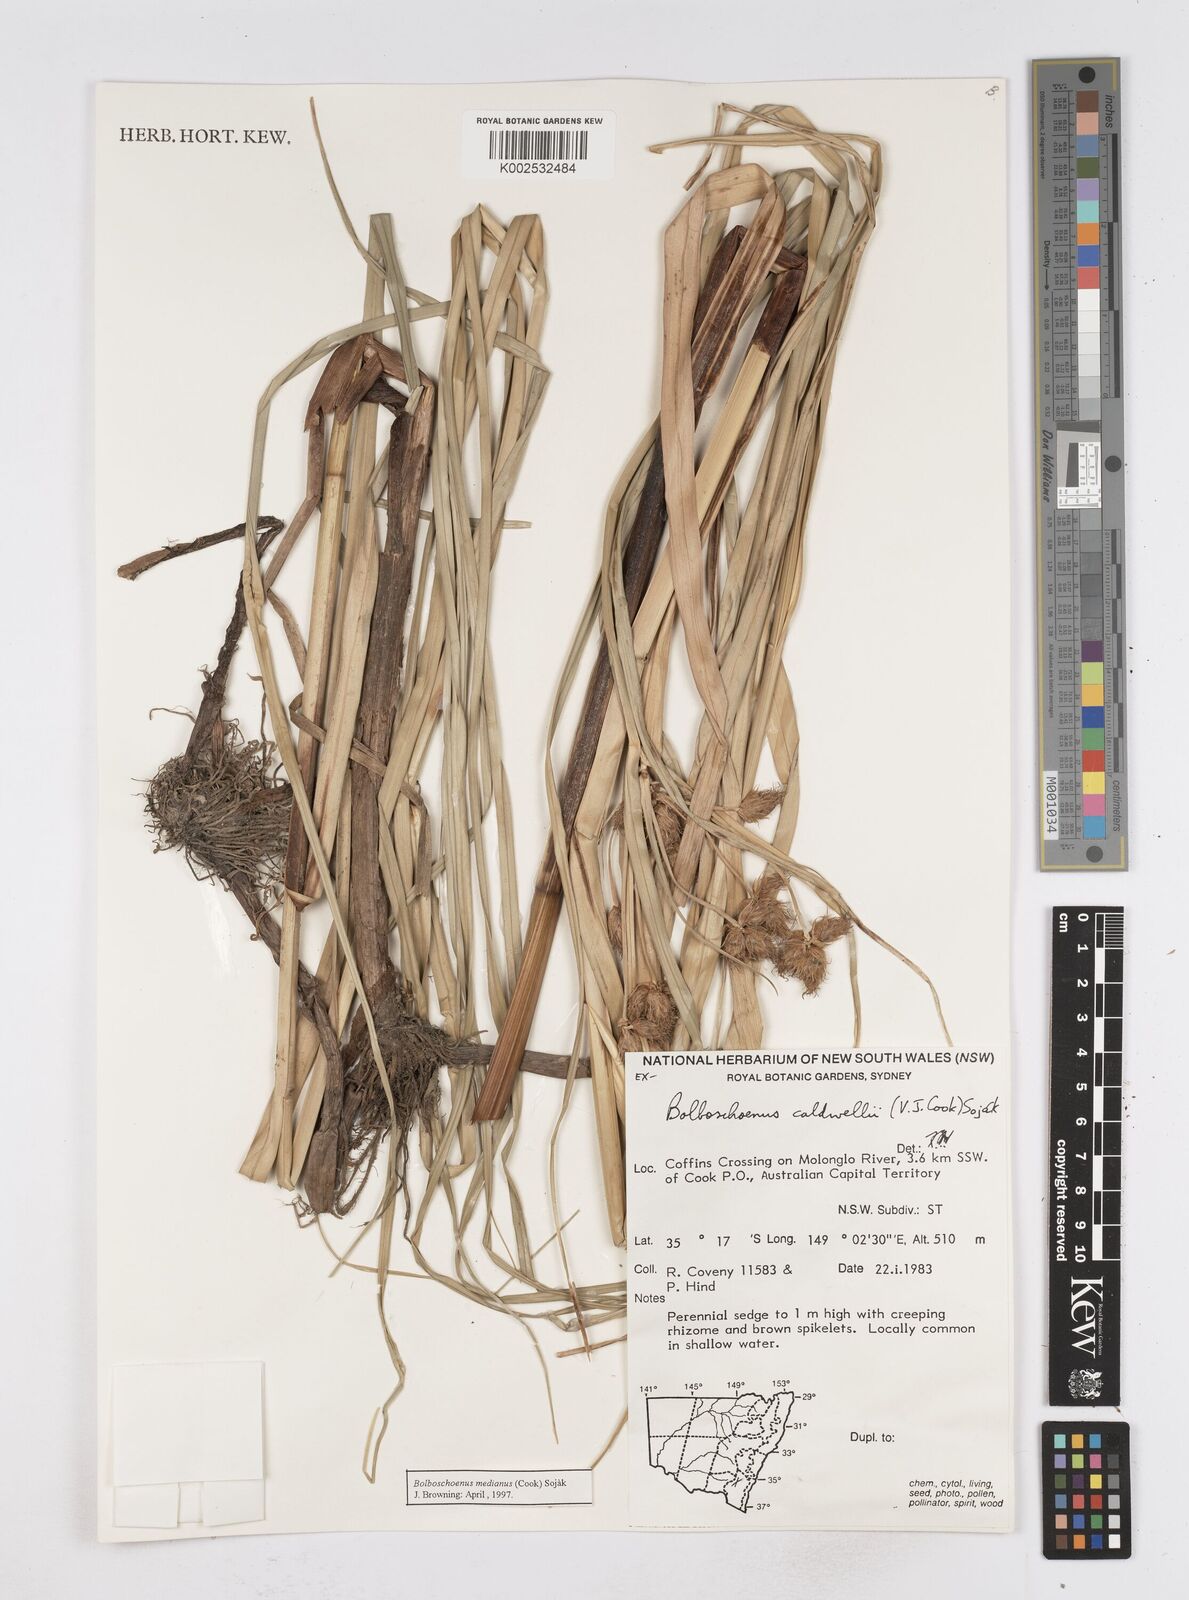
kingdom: Plantae
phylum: Tracheophyta
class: Liliopsida
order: Poales
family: Cyperaceae
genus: Bolboschoenus
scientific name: Bolboschoenus caldwellii
